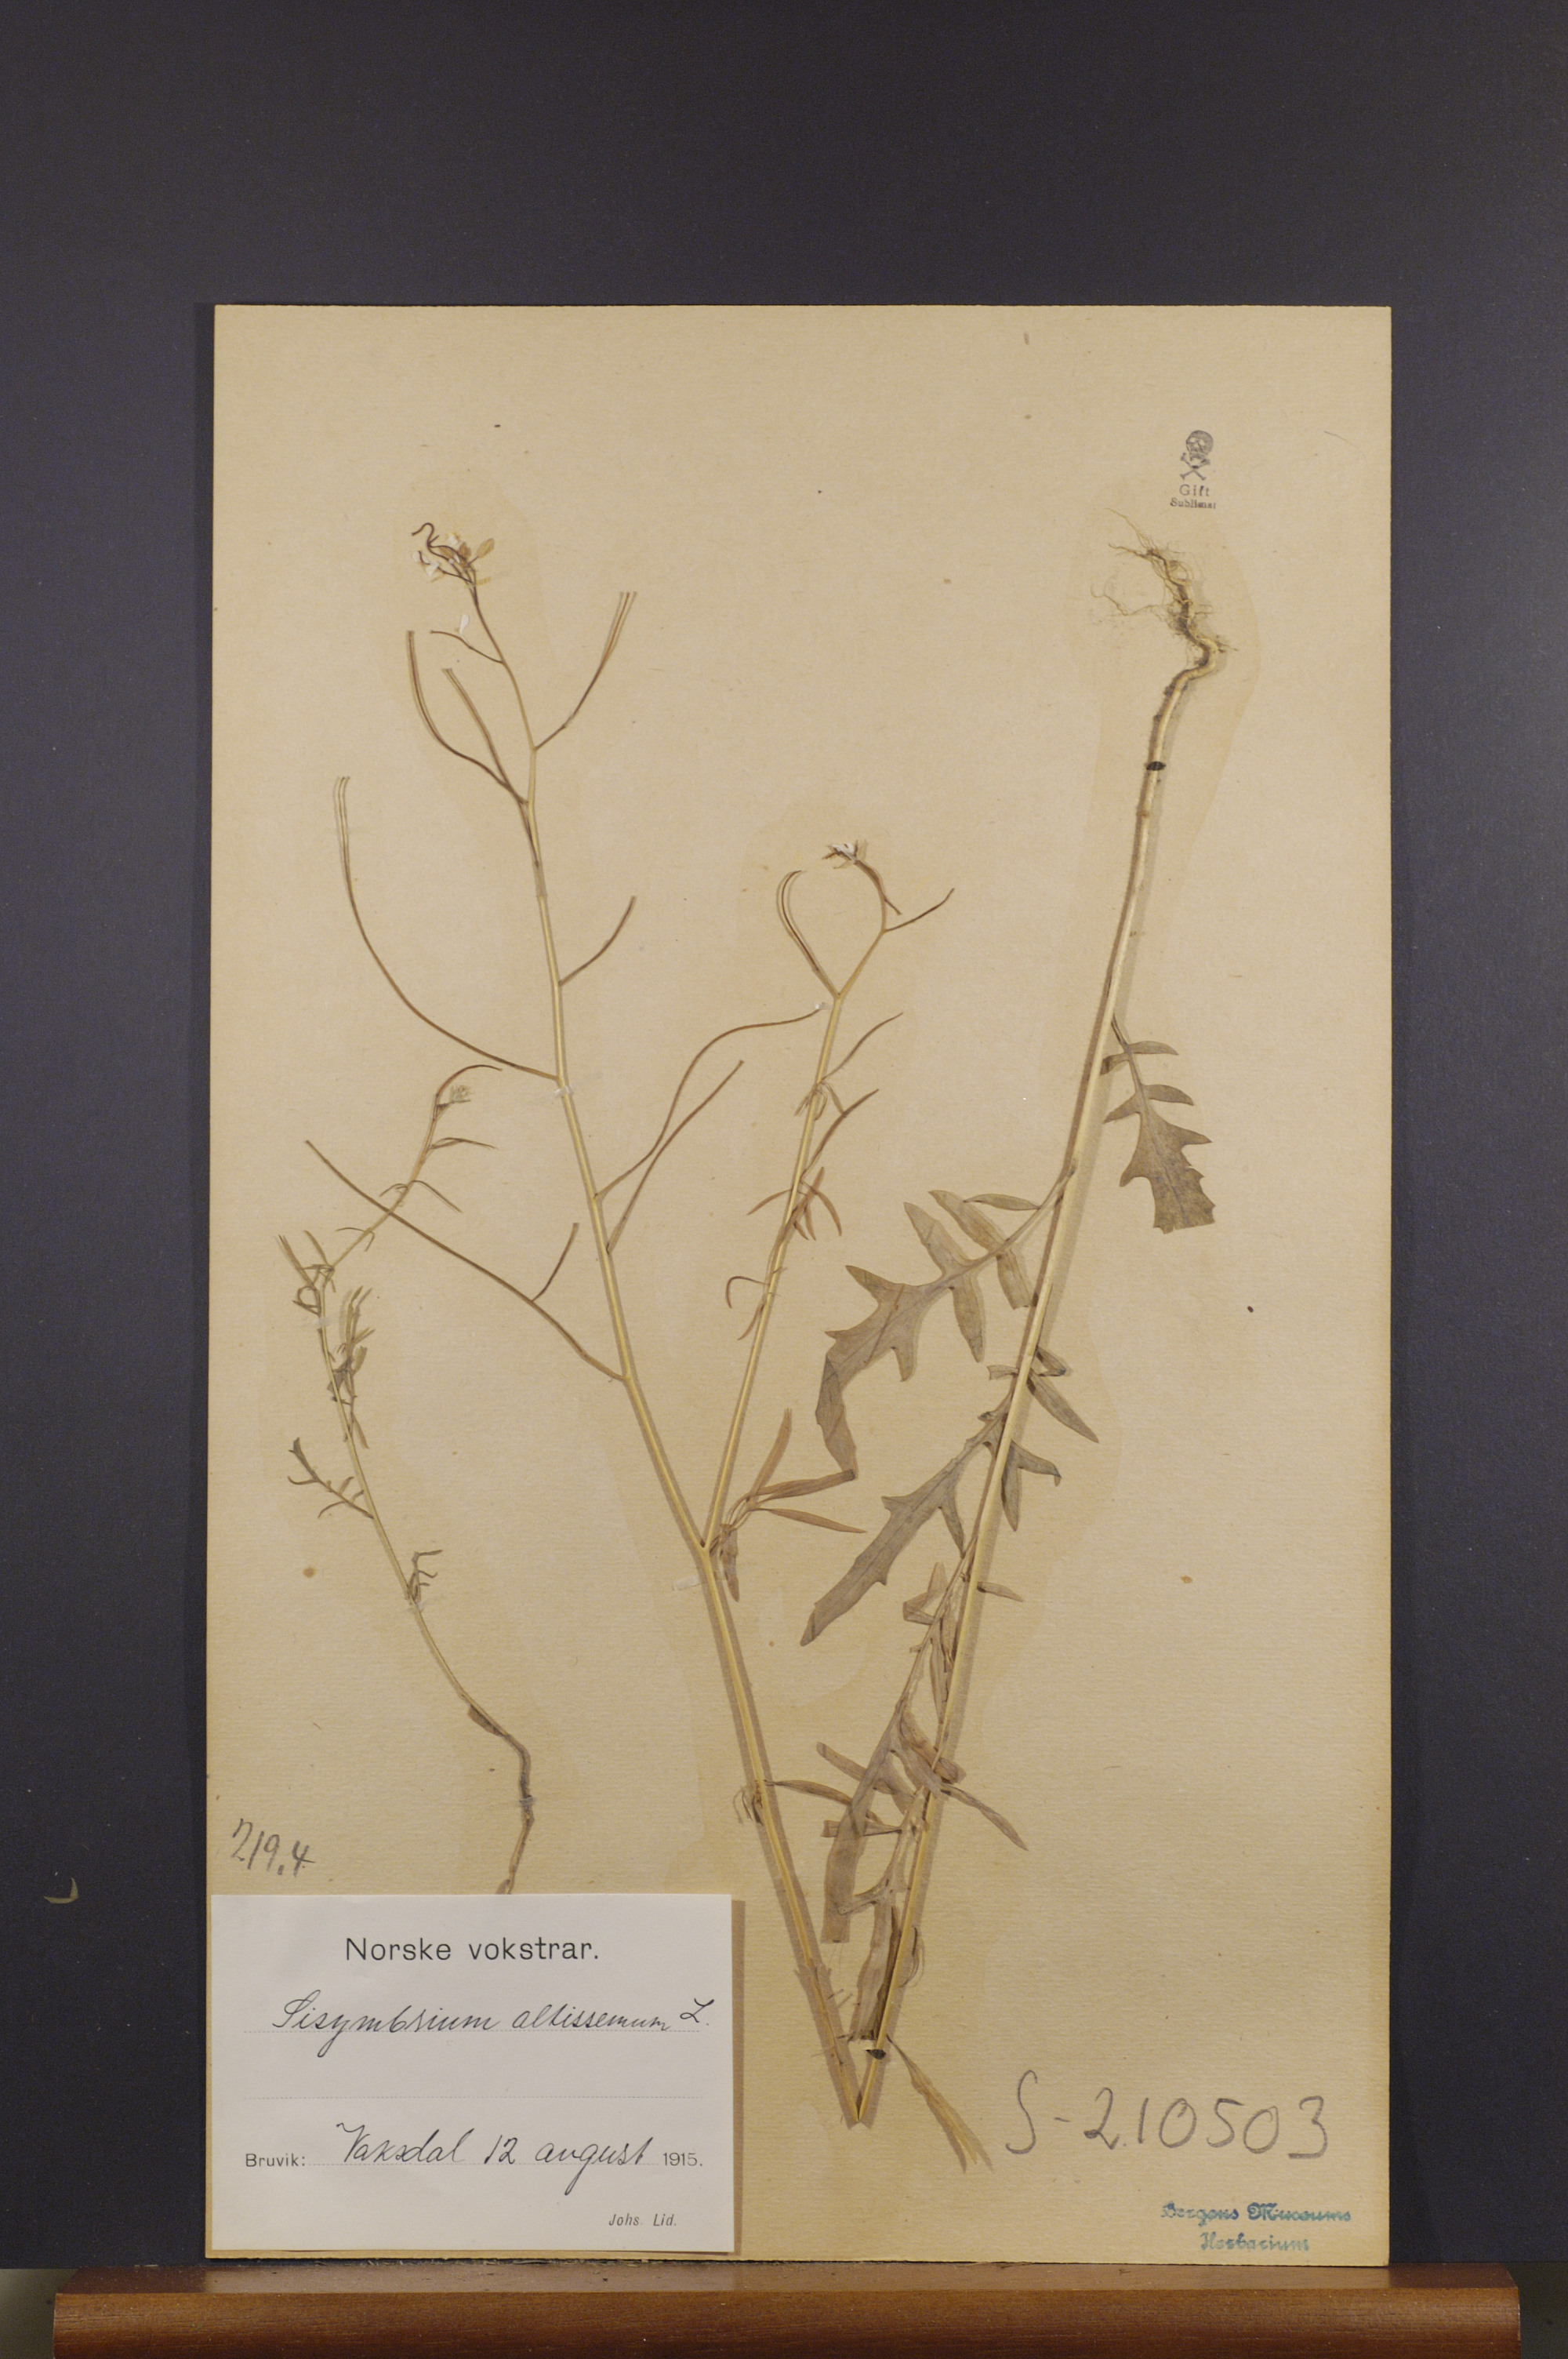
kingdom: Plantae
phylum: Tracheophyta
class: Magnoliopsida
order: Brassicales
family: Brassicaceae
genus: Sisymbrium
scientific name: Sisymbrium altissimum
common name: Tall rocket
